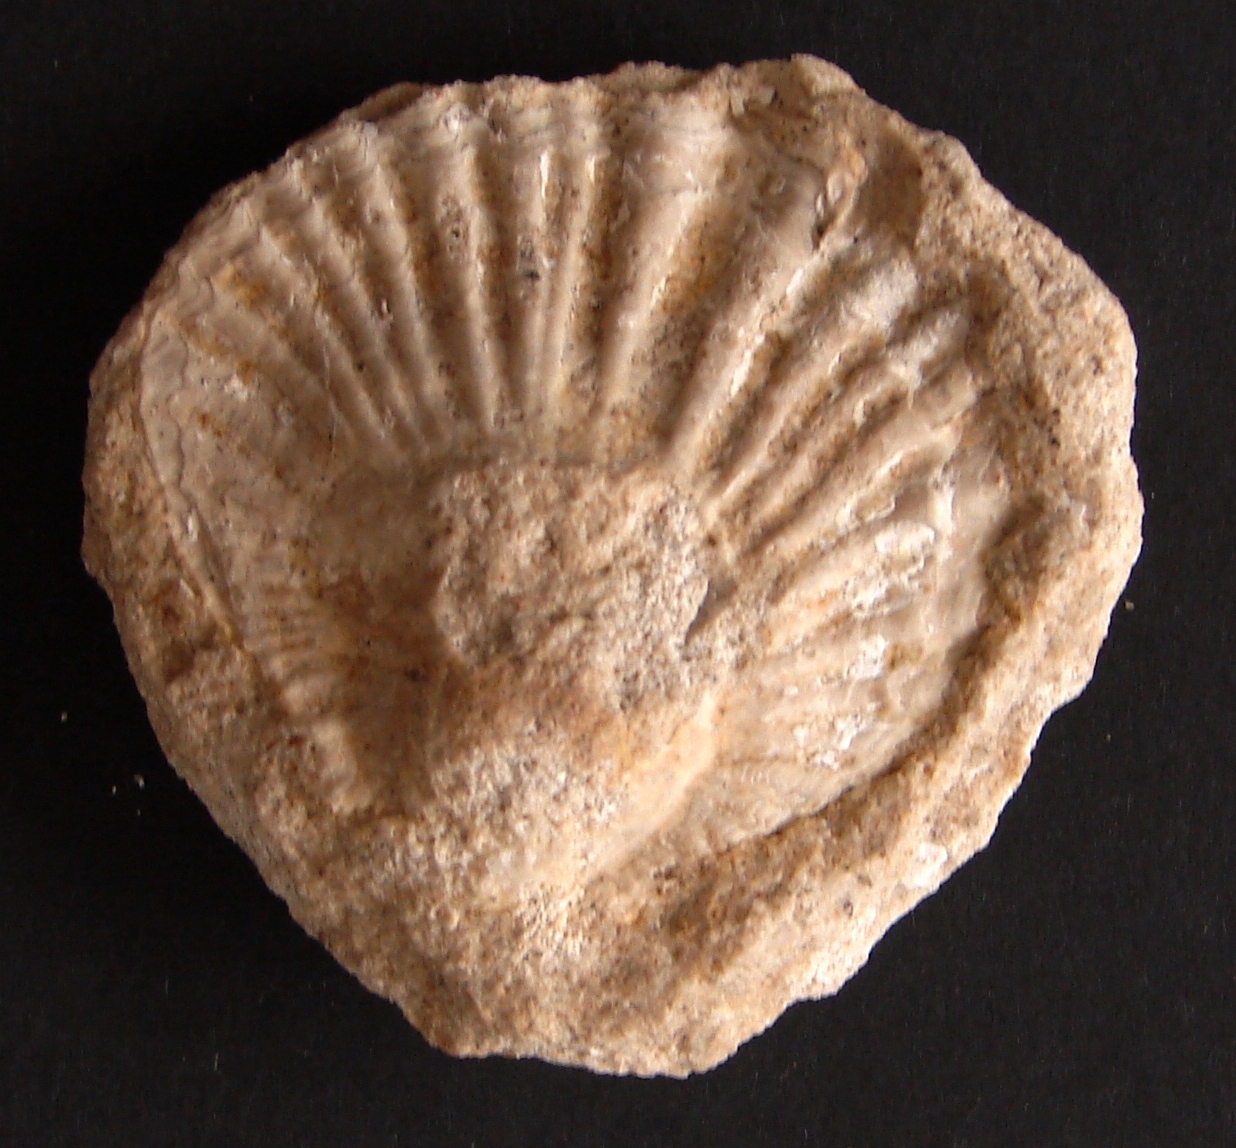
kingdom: Animalia
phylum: Mollusca
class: Bivalvia
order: Pectinida
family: Prospondylidae
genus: Noetlingiconcha
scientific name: Noetlingiconcha
